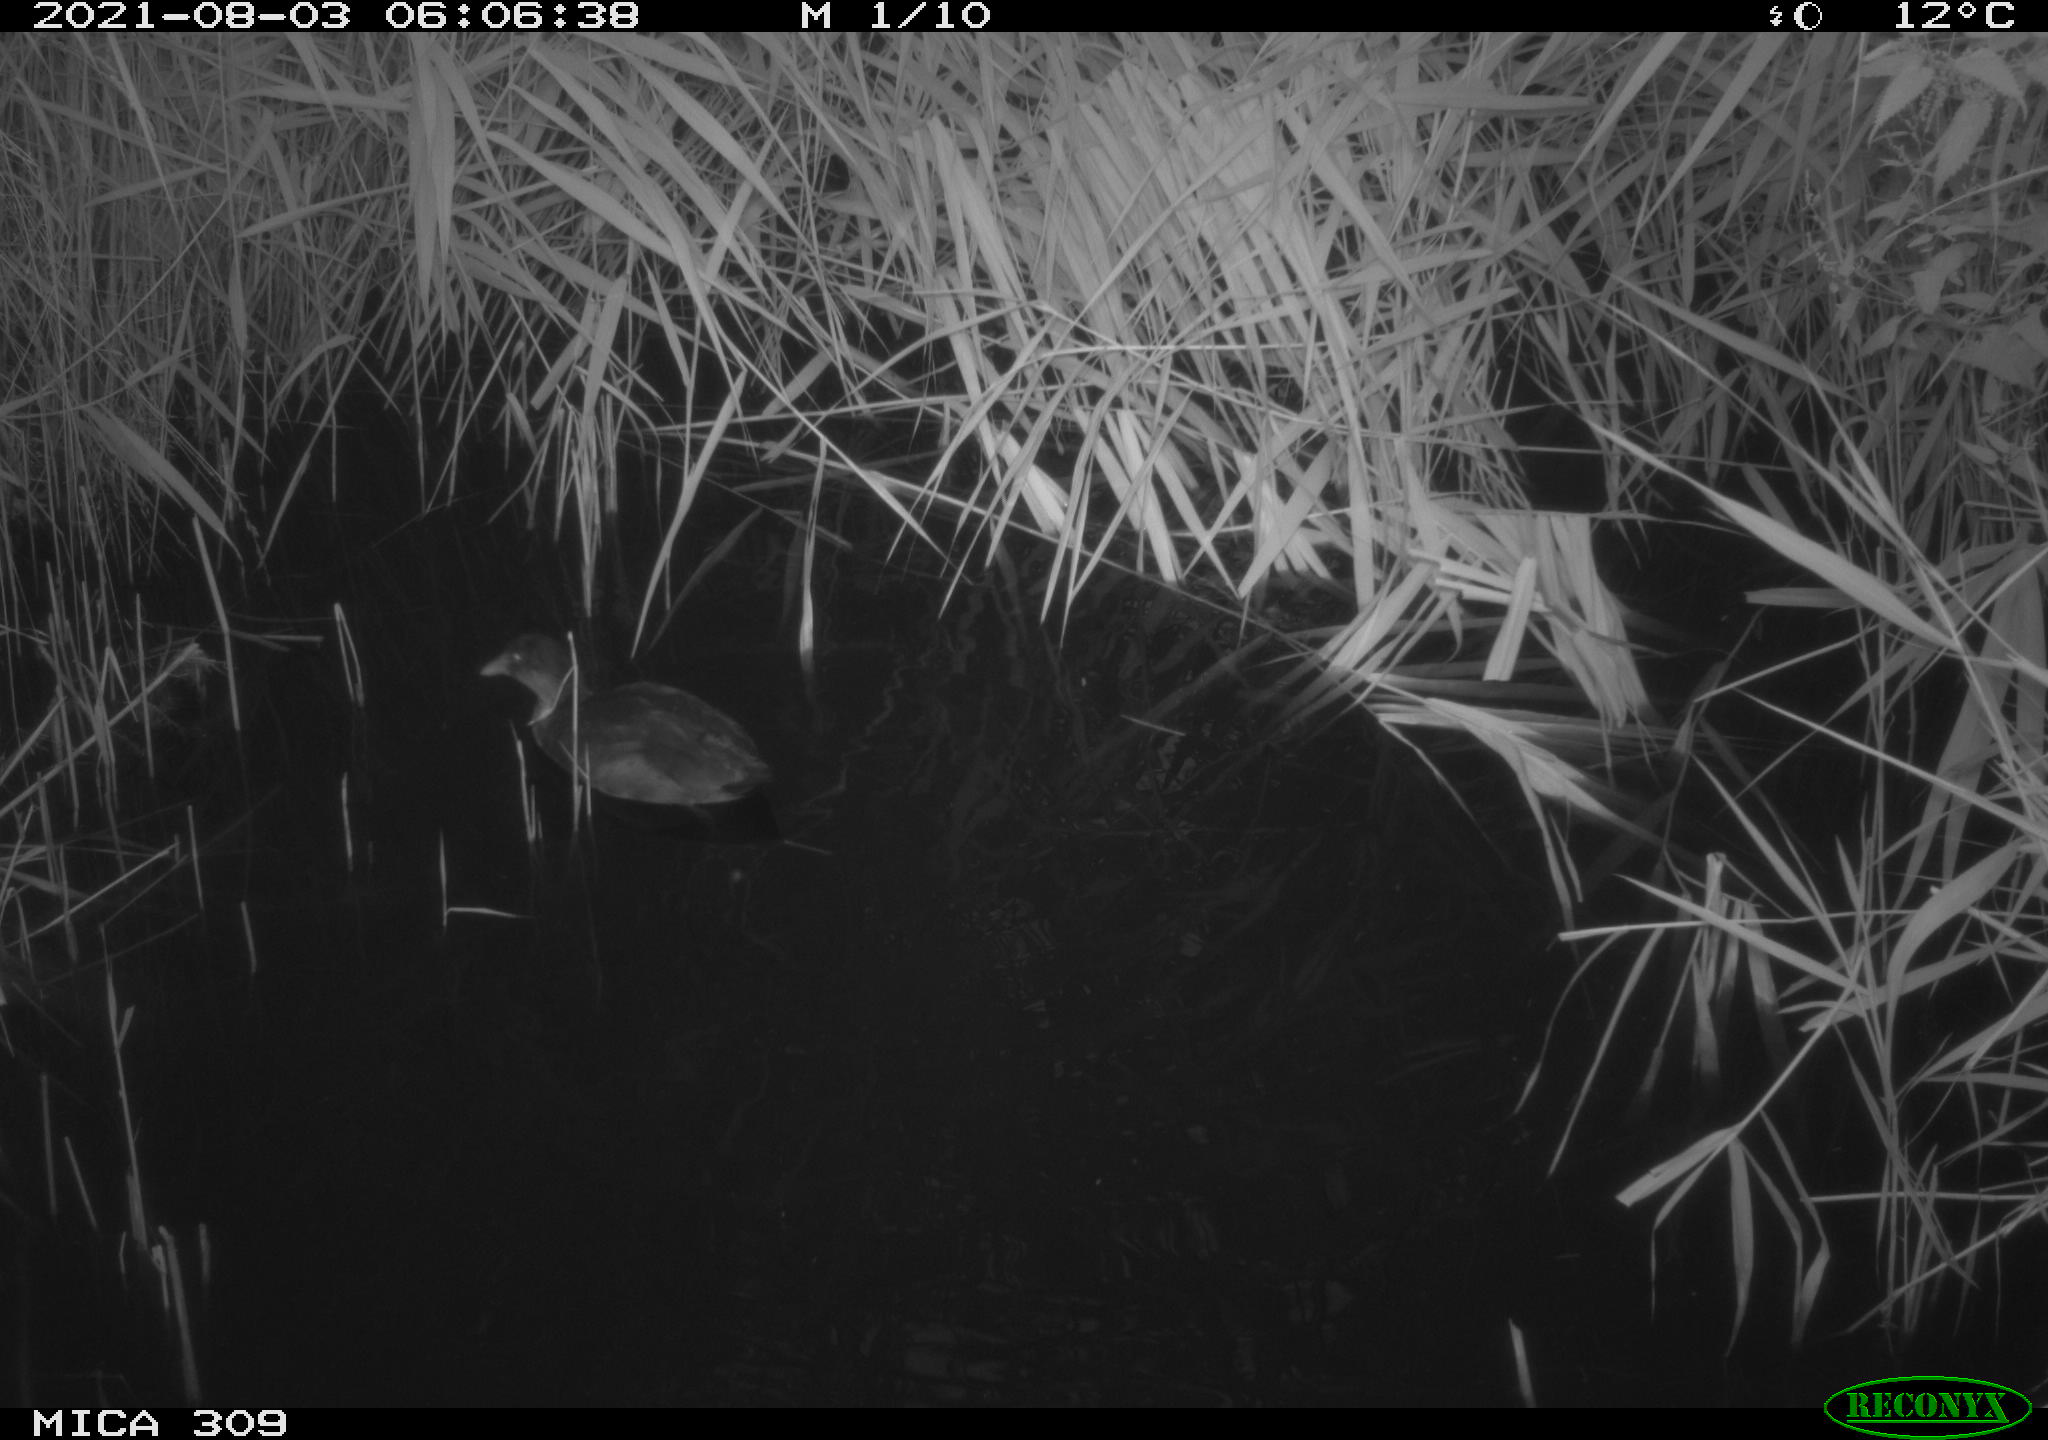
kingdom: Animalia
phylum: Chordata
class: Aves
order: Gruiformes
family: Rallidae
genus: Fulica
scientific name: Fulica atra
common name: Eurasian coot
